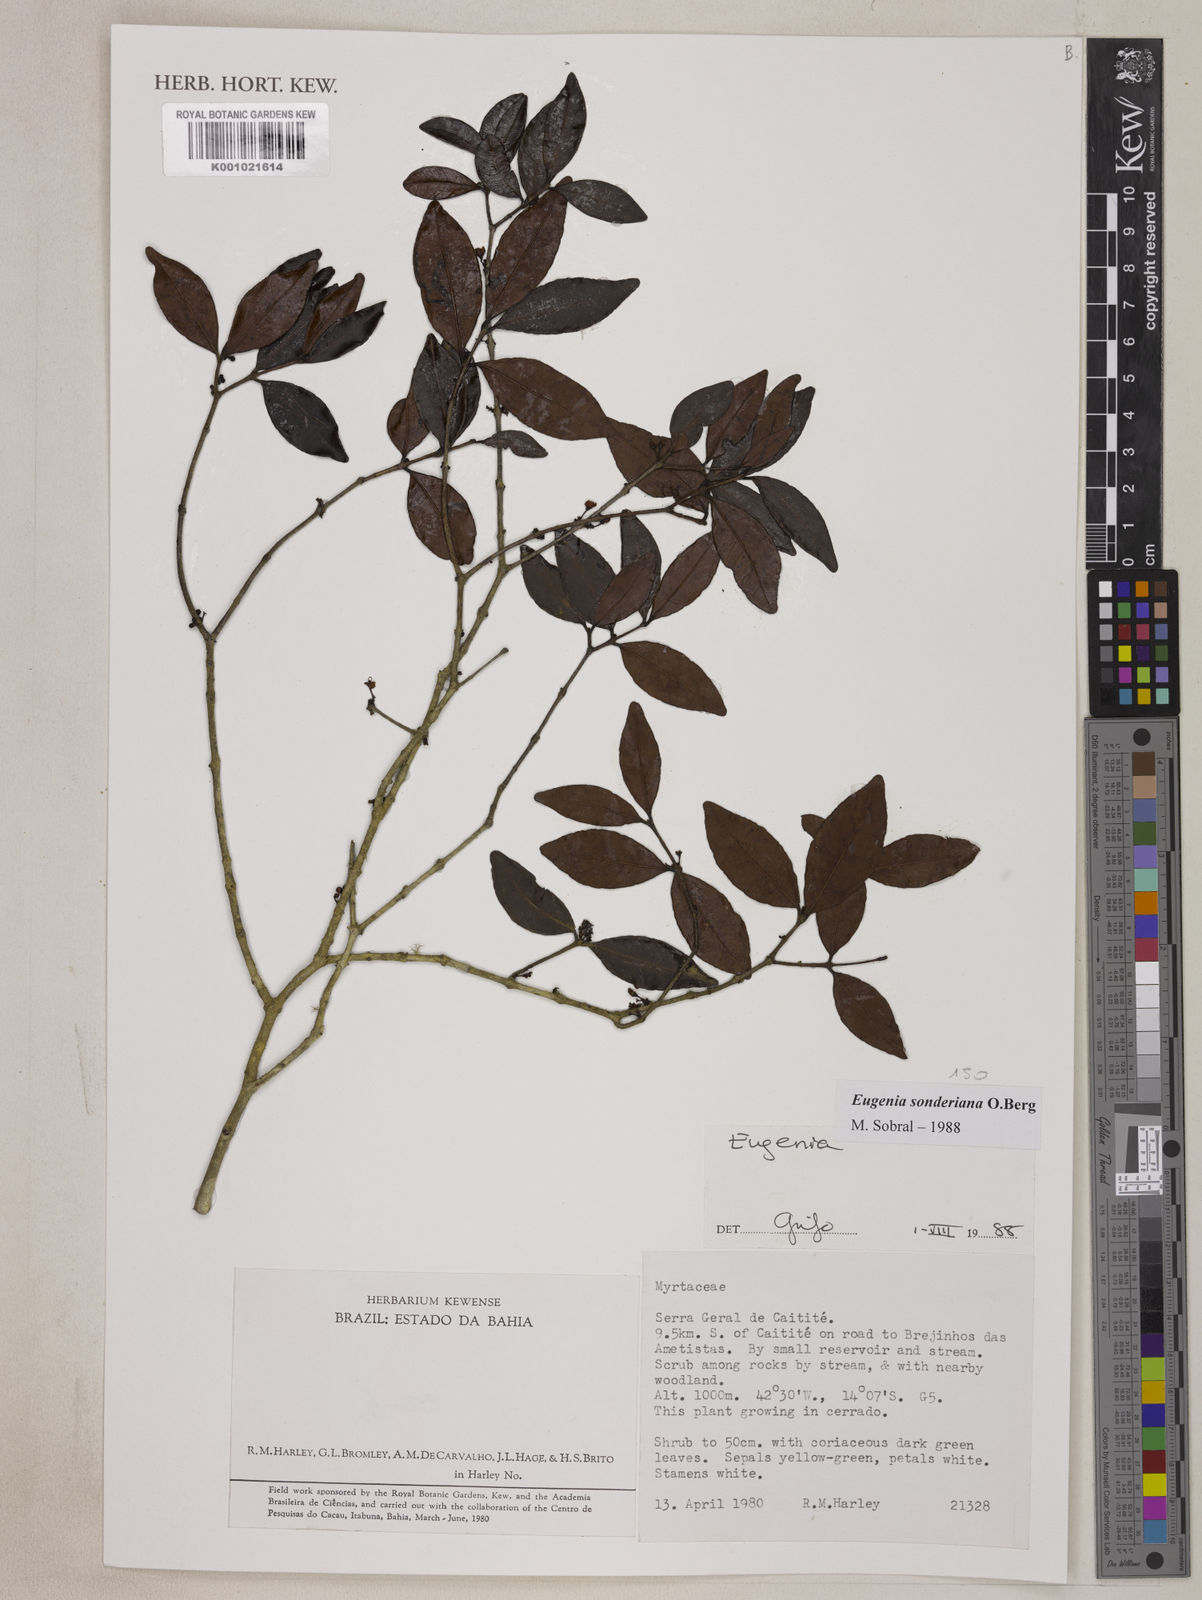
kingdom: Plantae
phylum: Tracheophyta
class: Magnoliopsida
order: Myrtales
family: Myrtaceae
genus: Eugenia
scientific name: Eugenia sonderiana
